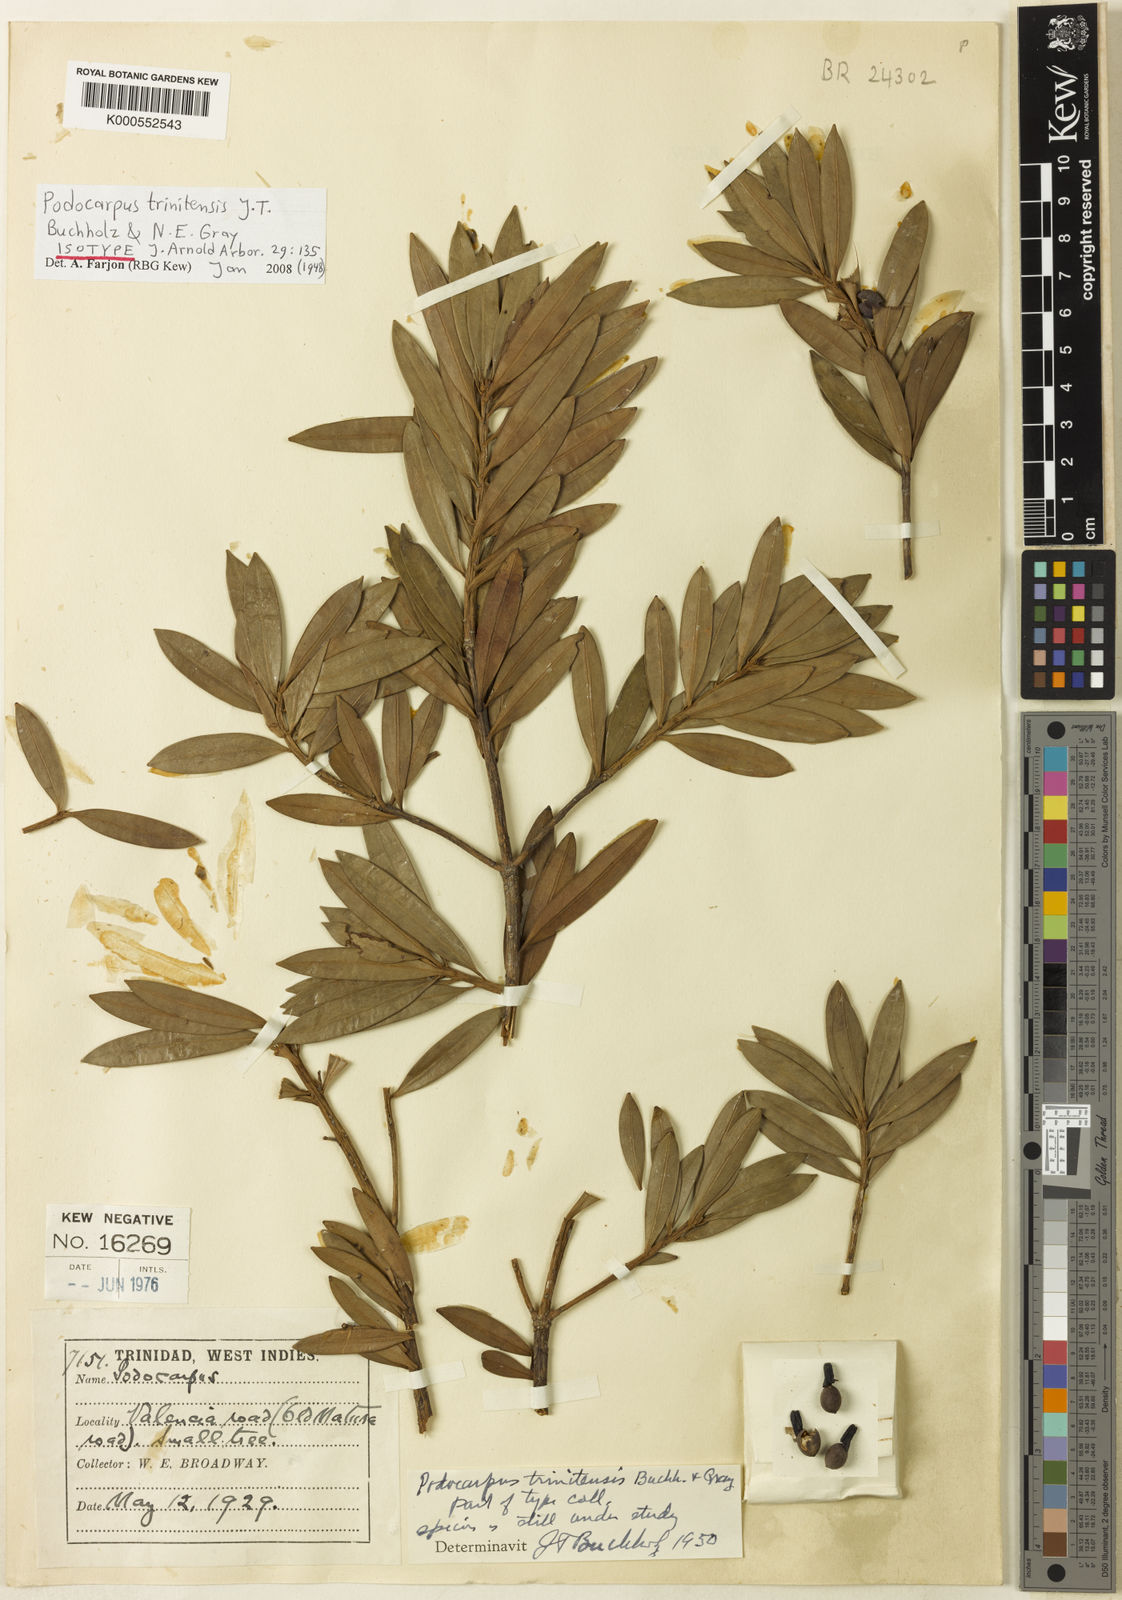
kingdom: Plantae
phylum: Tracheophyta
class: Pinopsida
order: Pinales
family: Podocarpaceae
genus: Podocarpus
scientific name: Podocarpus trinitensis
